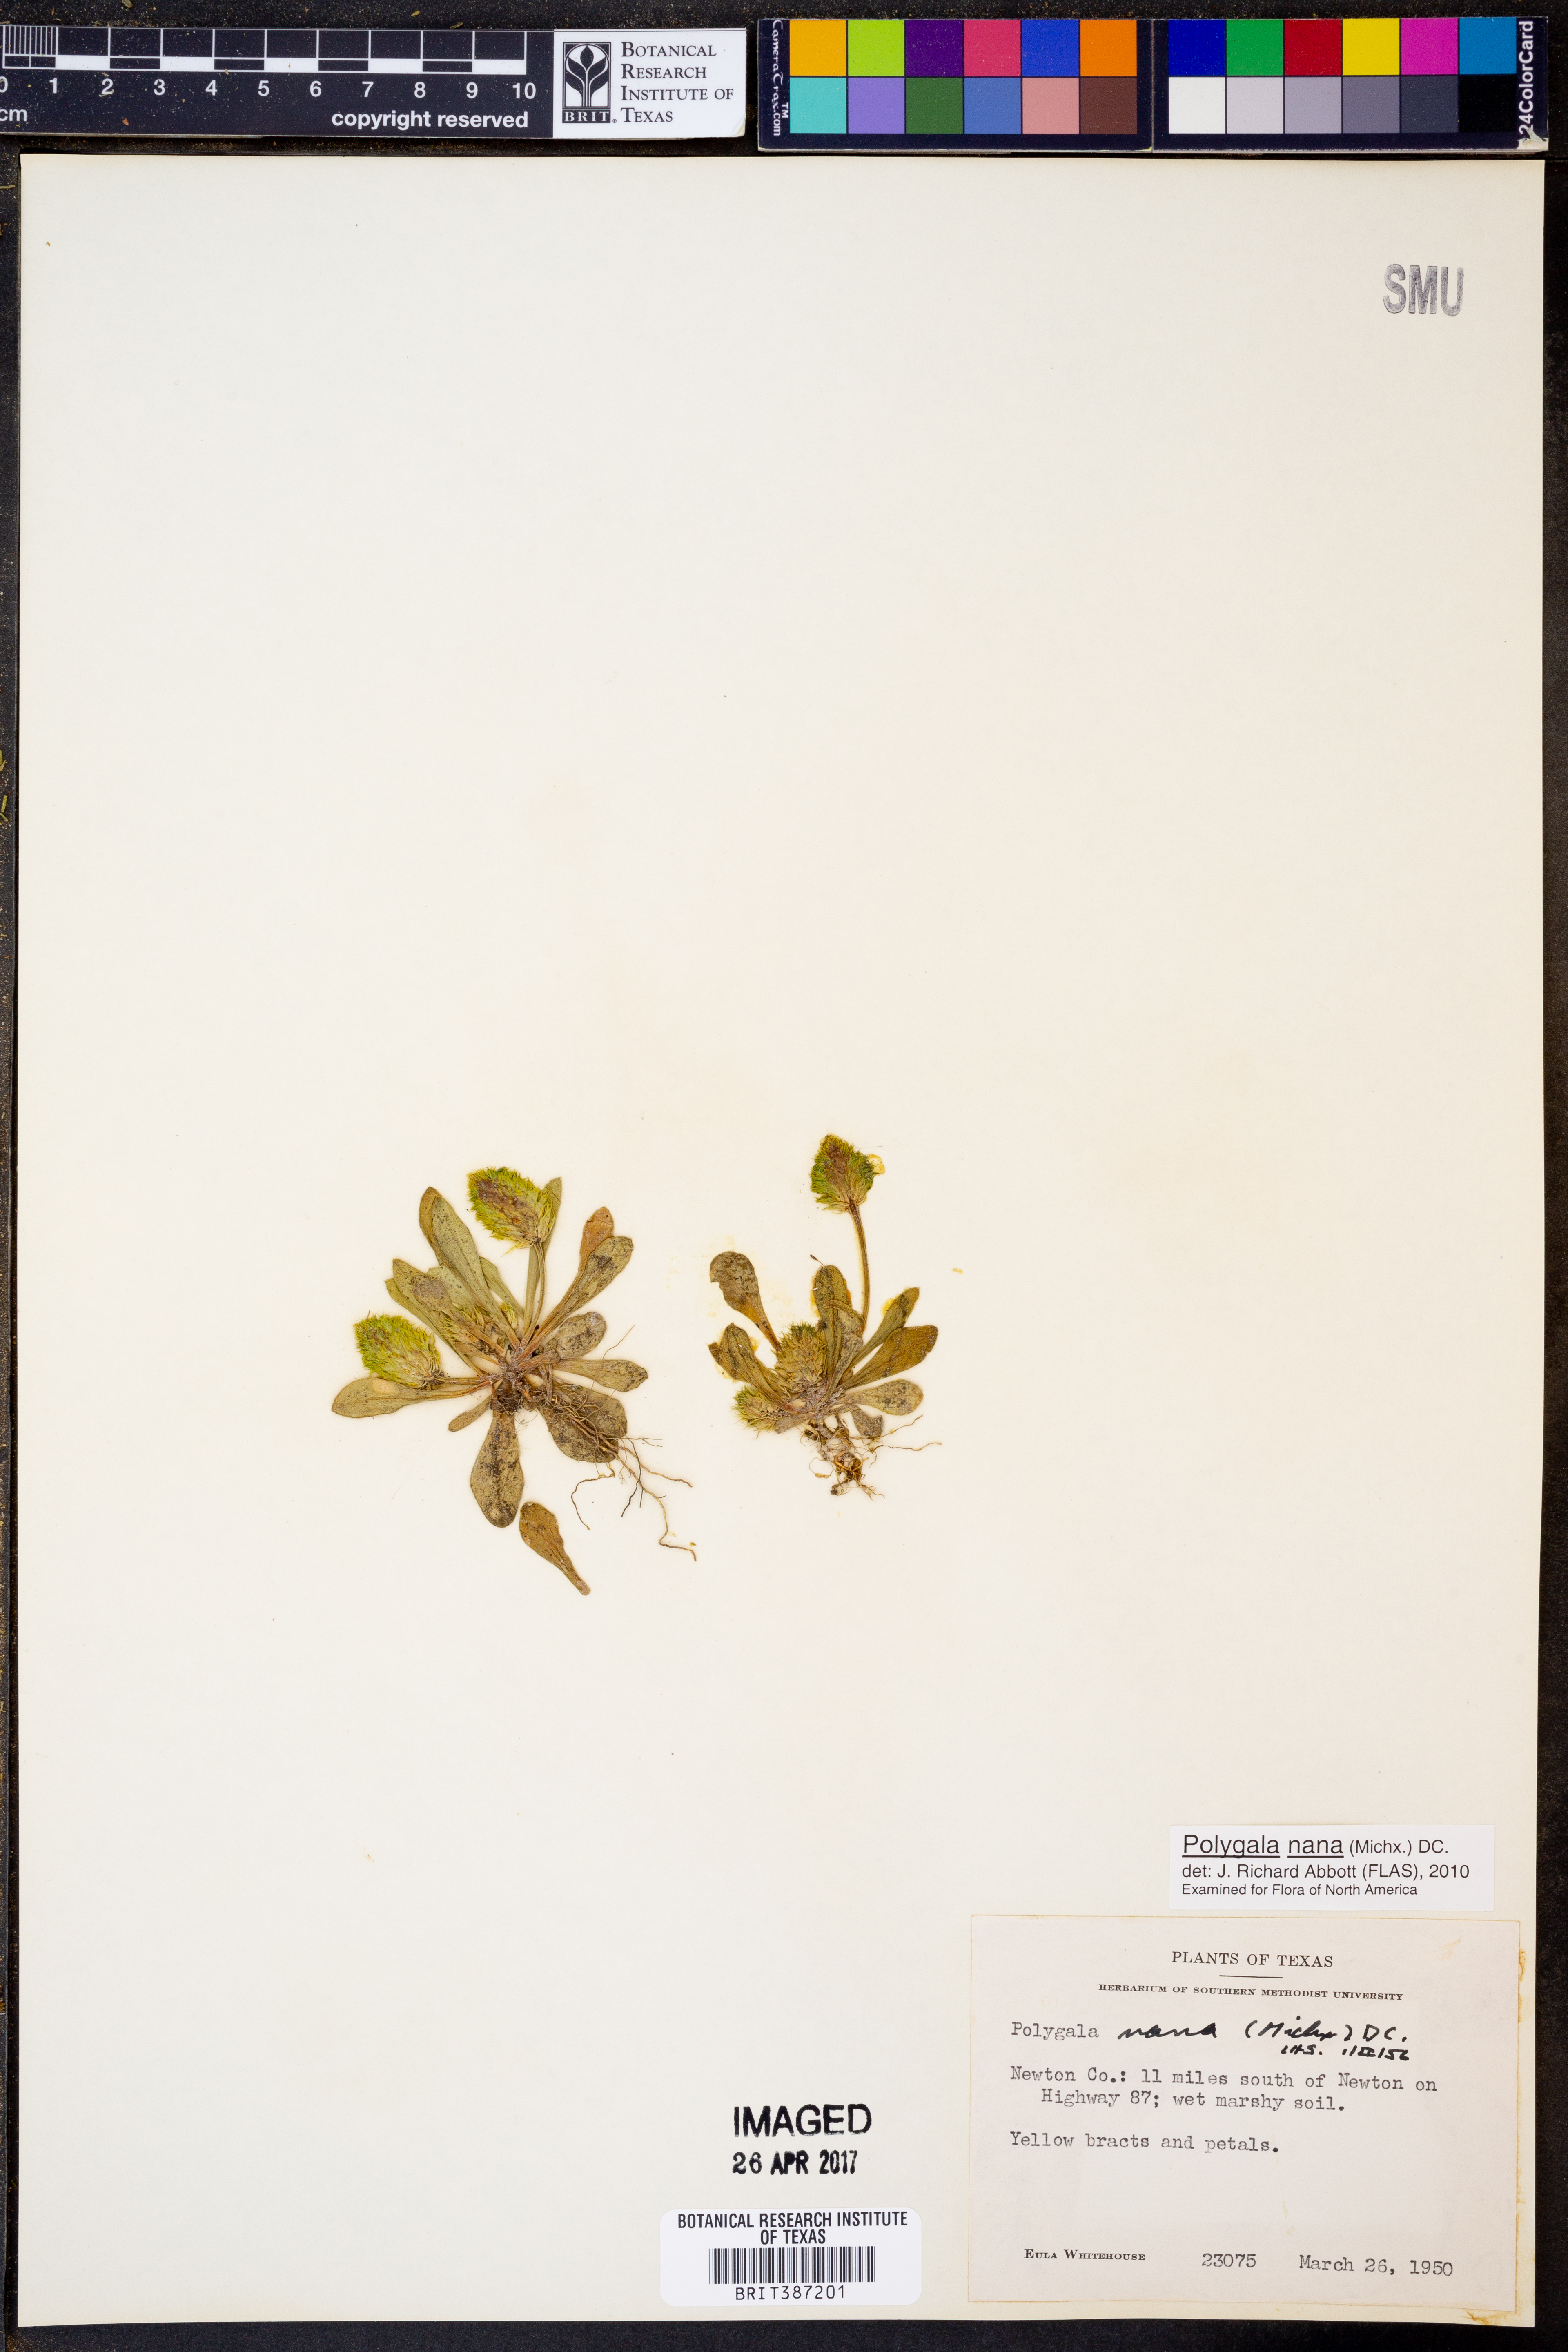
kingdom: Plantae
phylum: Tracheophyta
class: Magnoliopsida
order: Fabales
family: Polygalaceae
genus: Polygala
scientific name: Polygala nana
